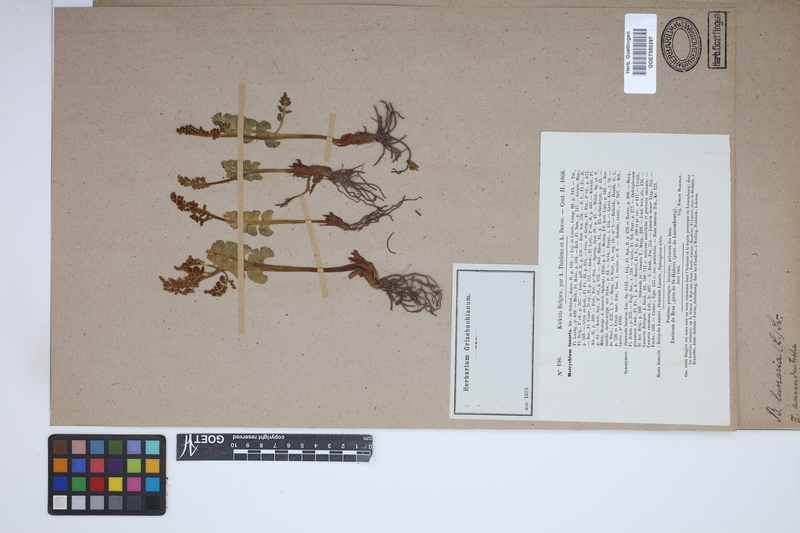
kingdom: Plantae
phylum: Tracheophyta
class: Polypodiopsida
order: Ophioglossales
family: Ophioglossaceae
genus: Botrychium
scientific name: Botrychium lunaria
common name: Moonwort
